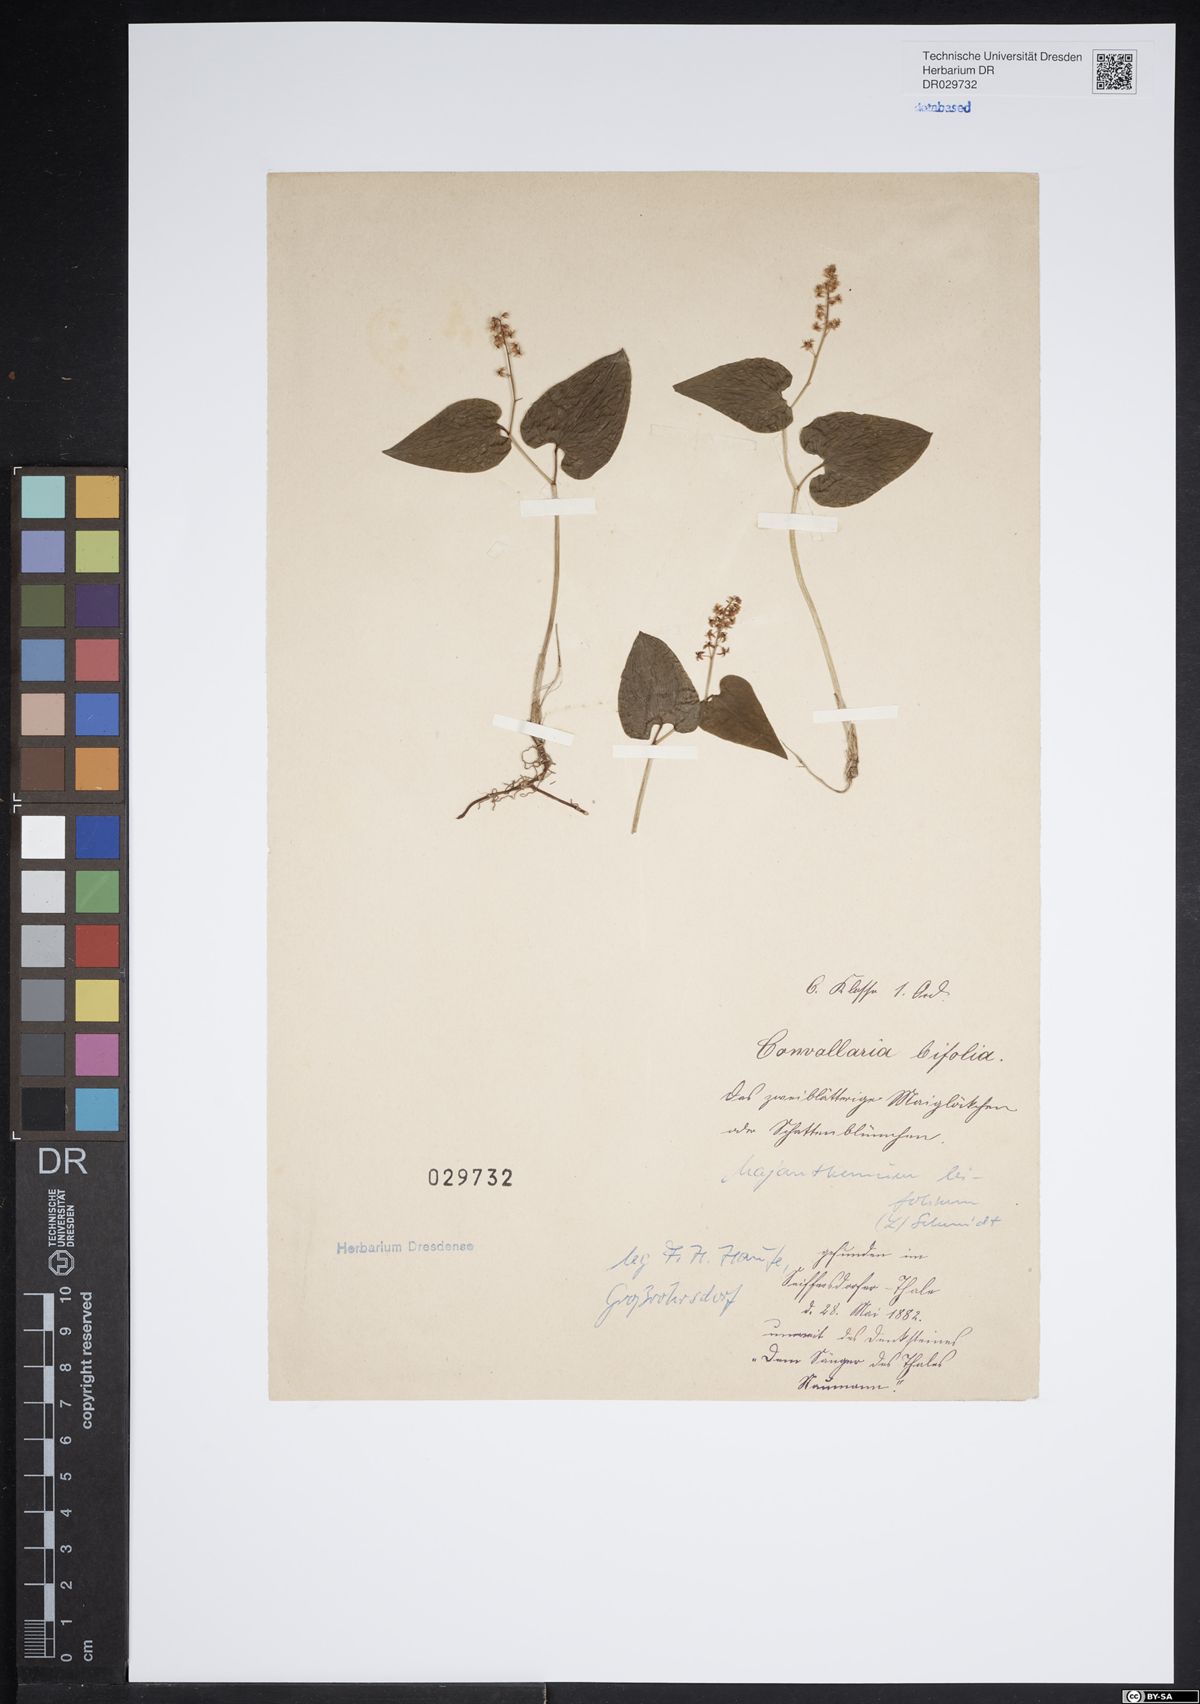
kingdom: Plantae
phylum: Tracheophyta
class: Liliopsida
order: Asparagales
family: Asparagaceae
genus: Maianthemum
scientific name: Maianthemum bifolium
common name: May lily
